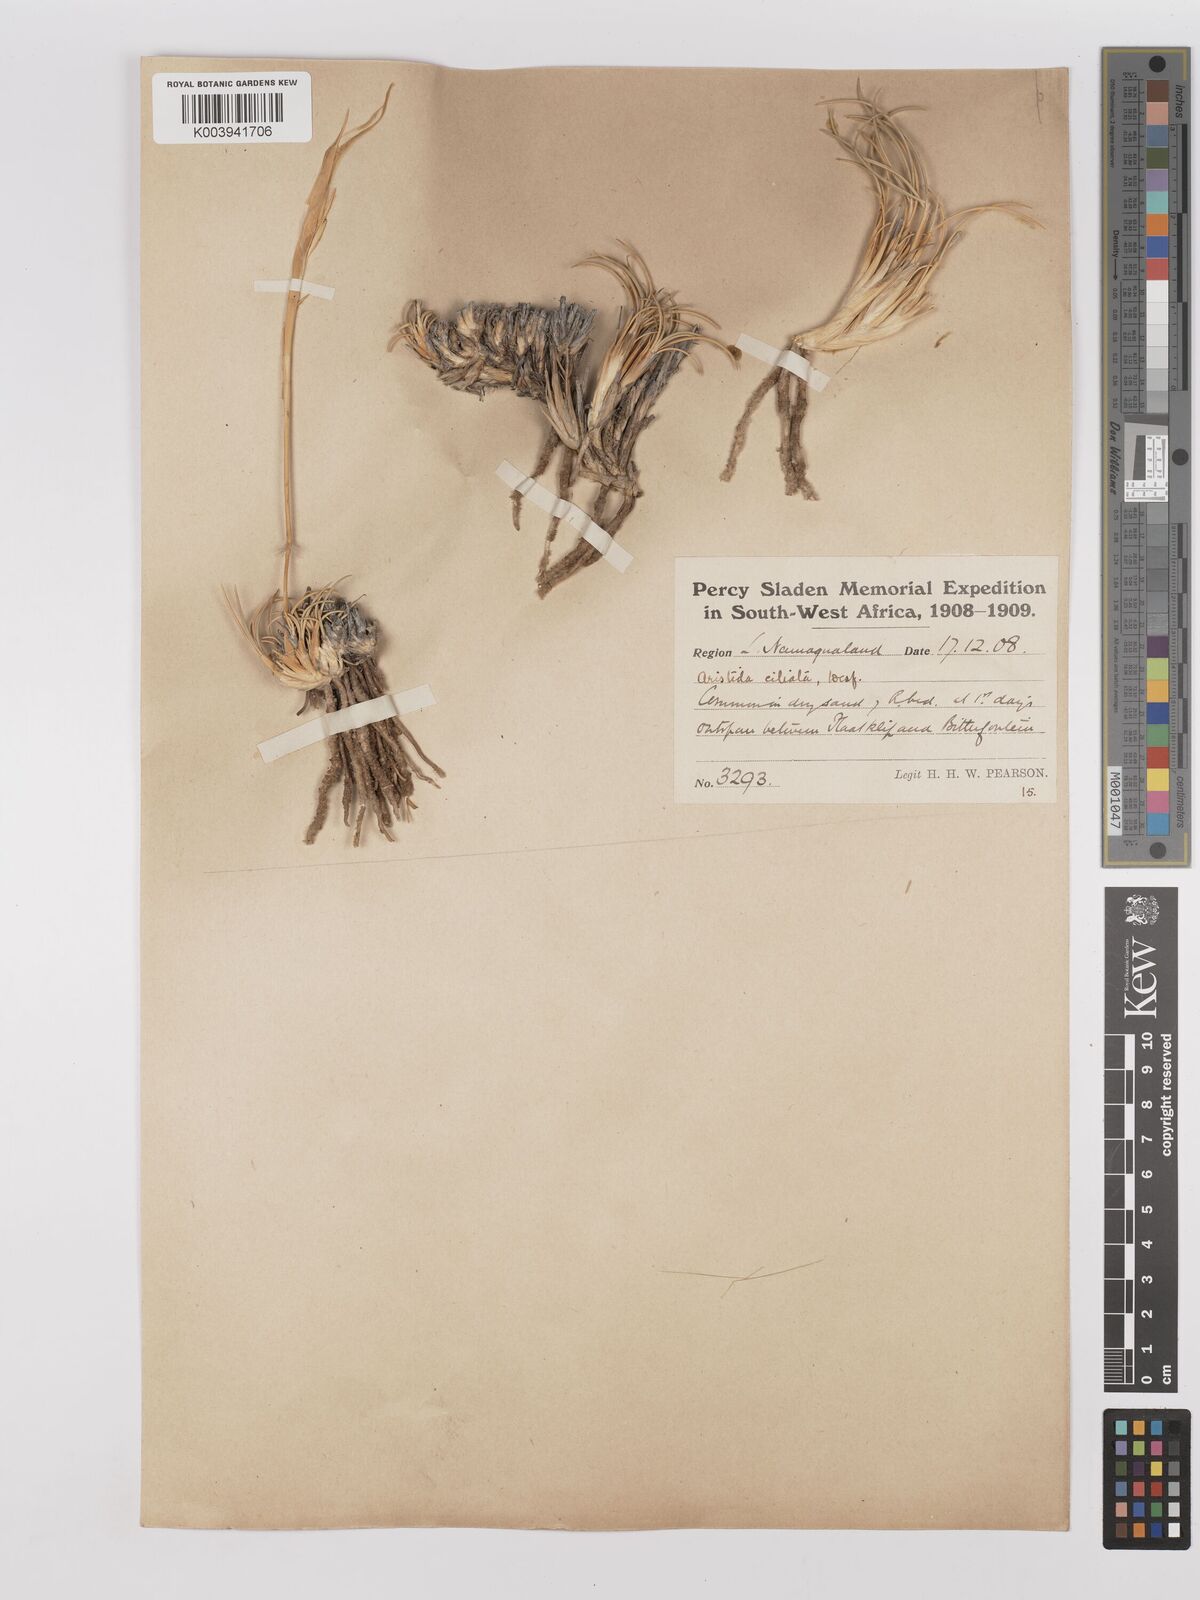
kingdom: Plantae
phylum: Tracheophyta
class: Liliopsida
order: Poales
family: Poaceae
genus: Stipagrostis
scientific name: Stipagrostis ciliata
